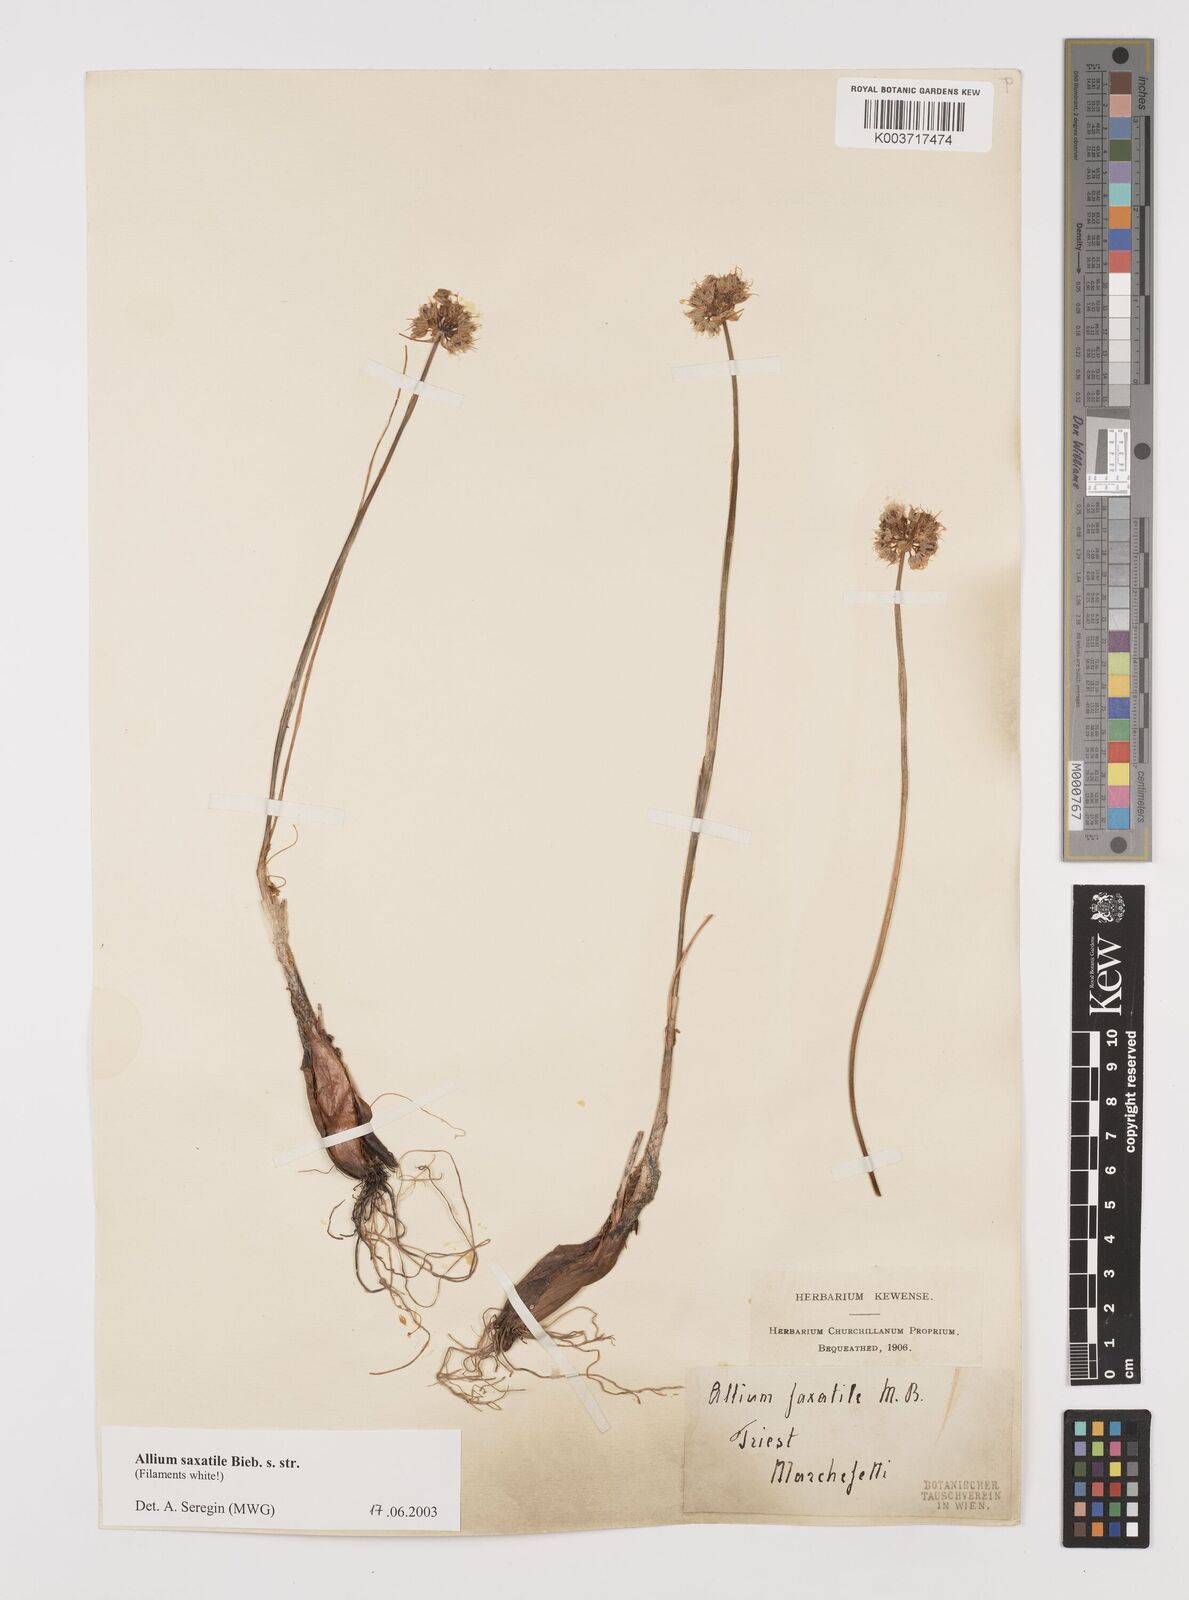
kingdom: Plantae
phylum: Tracheophyta
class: Liliopsida
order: Asparagales
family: Amaryllidaceae
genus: Allium
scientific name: Allium saxatile
